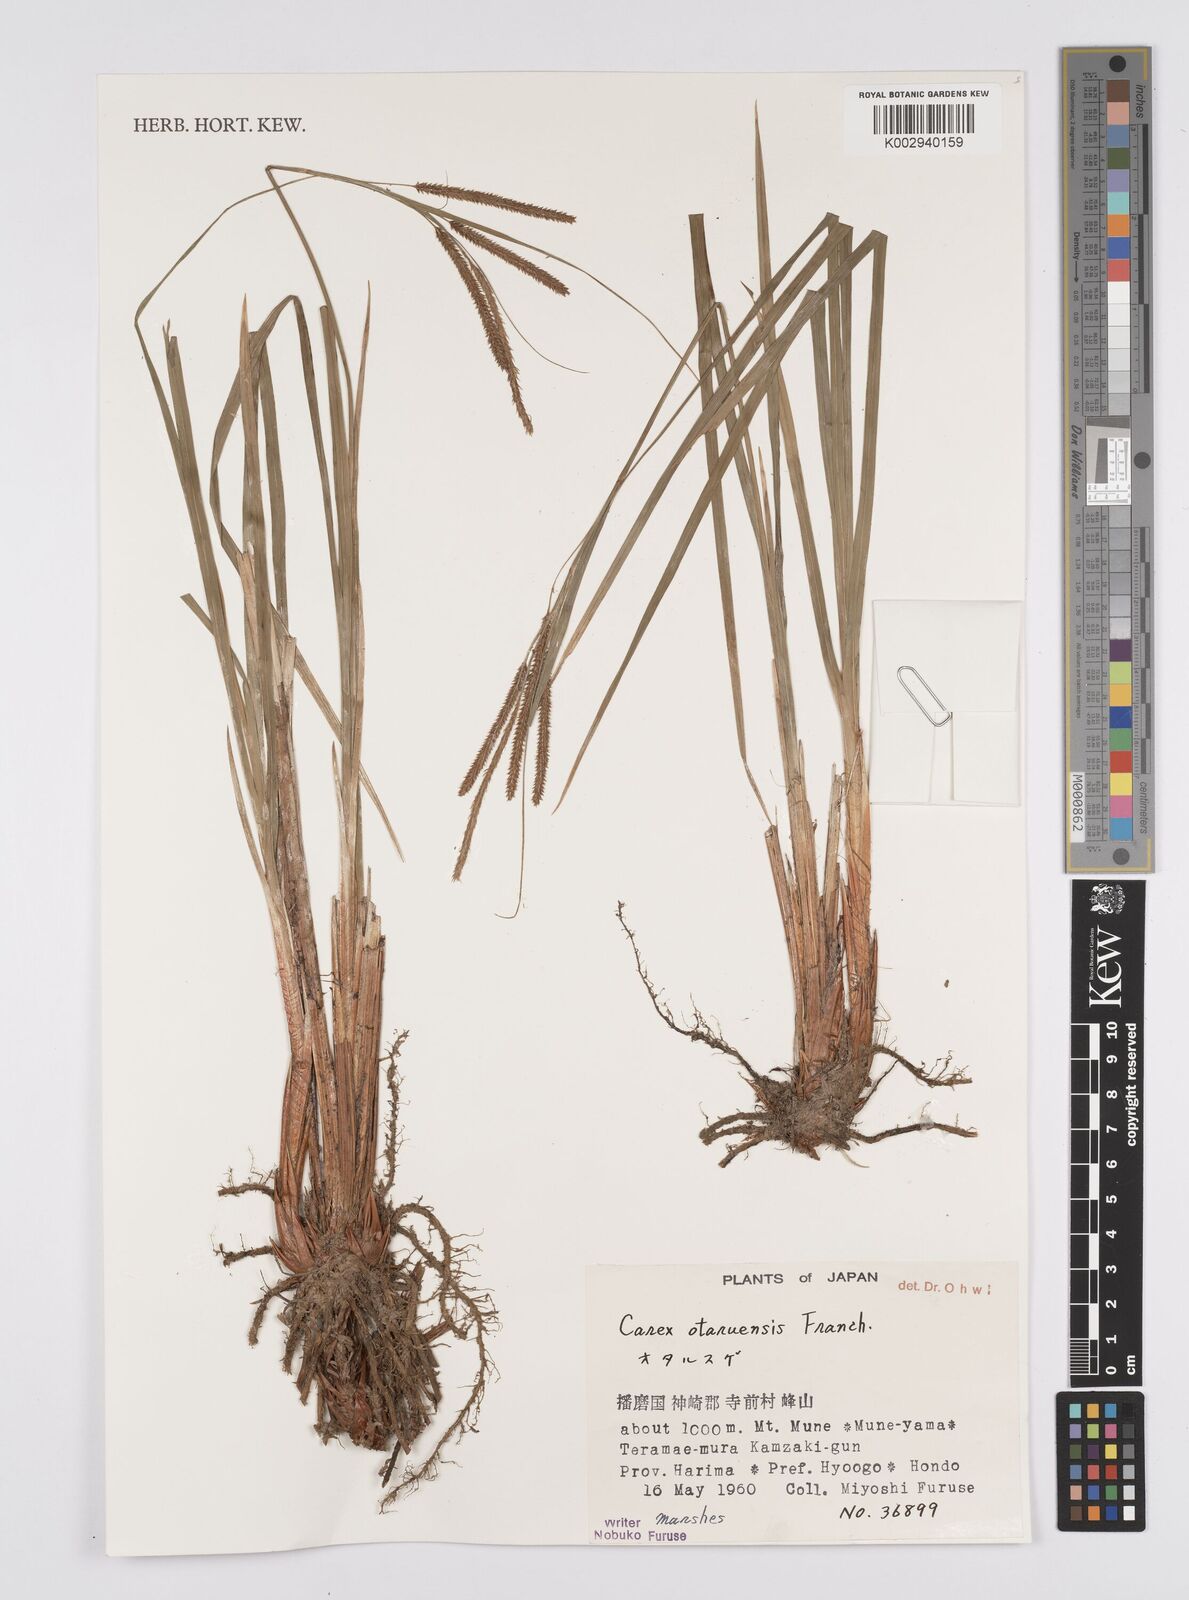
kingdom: Plantae
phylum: Tracheophyta
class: Liliopsida
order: Poales
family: Cyperaceae
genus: Carex
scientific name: Carex otaruensis
